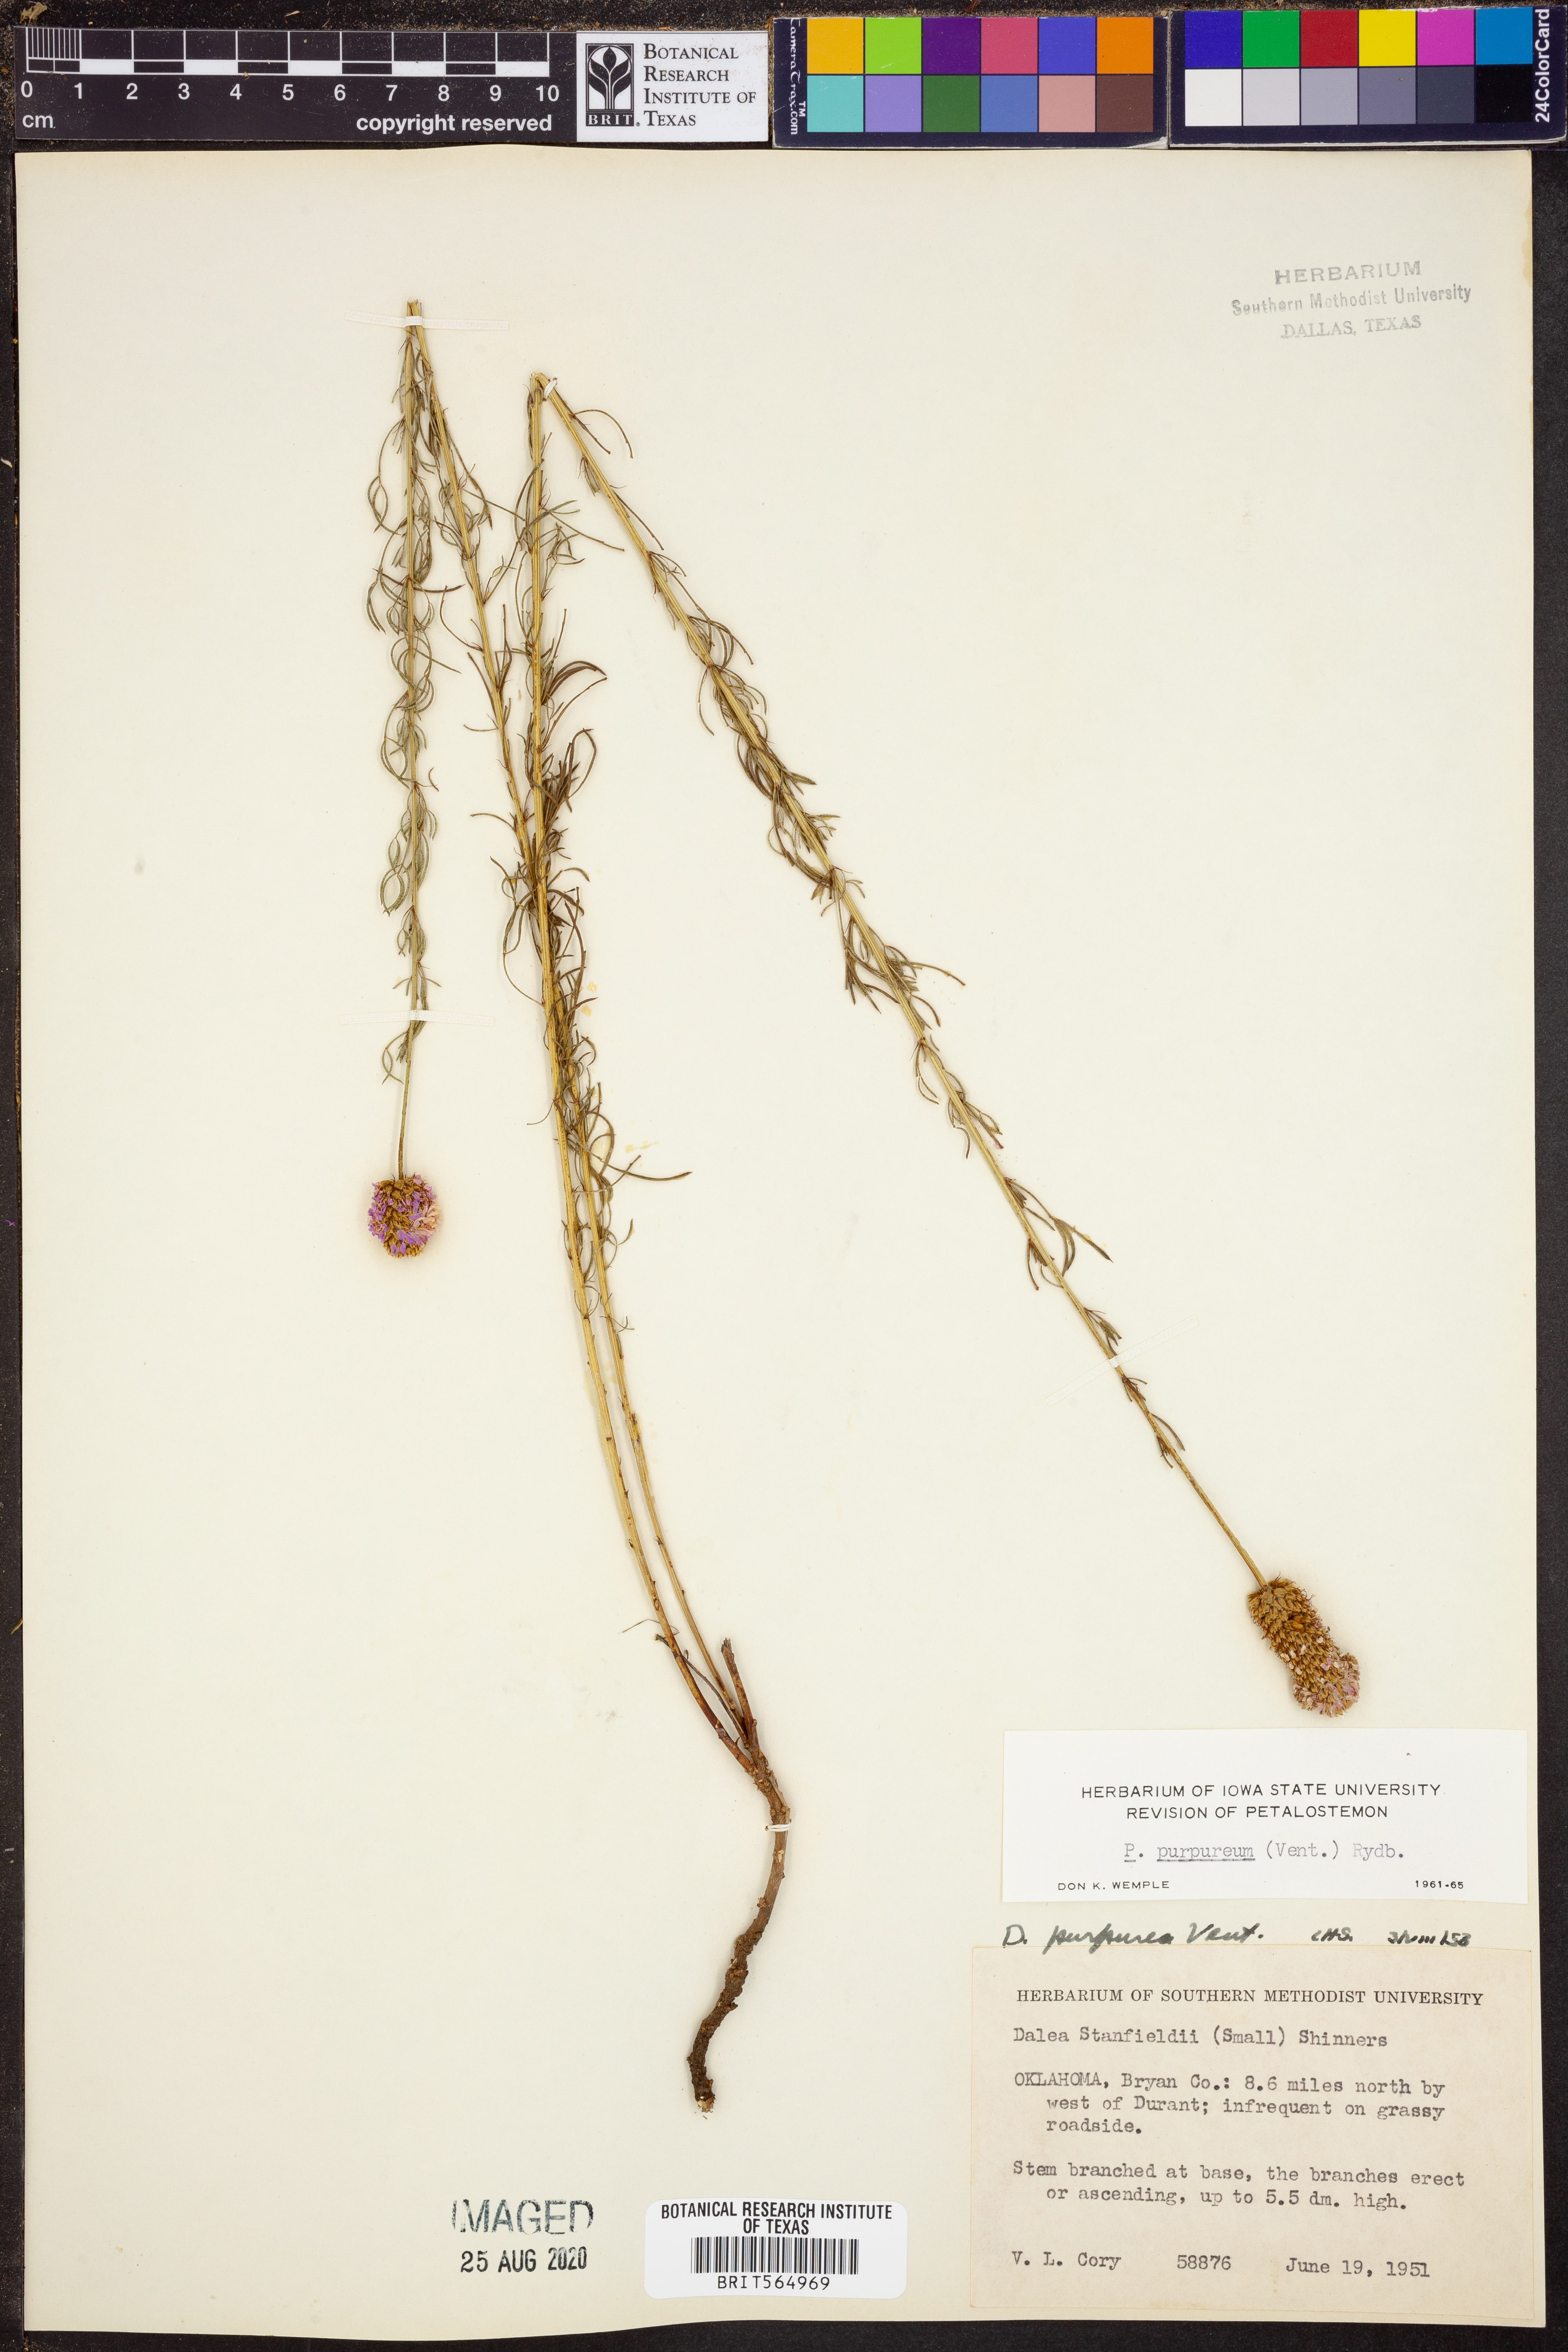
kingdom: Plantae
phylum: Tracheophyta
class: Magnoliopsida
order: Fabales
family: Fabaceae
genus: Dalea
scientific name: Dalea purpurea
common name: Purple prairie-clover
